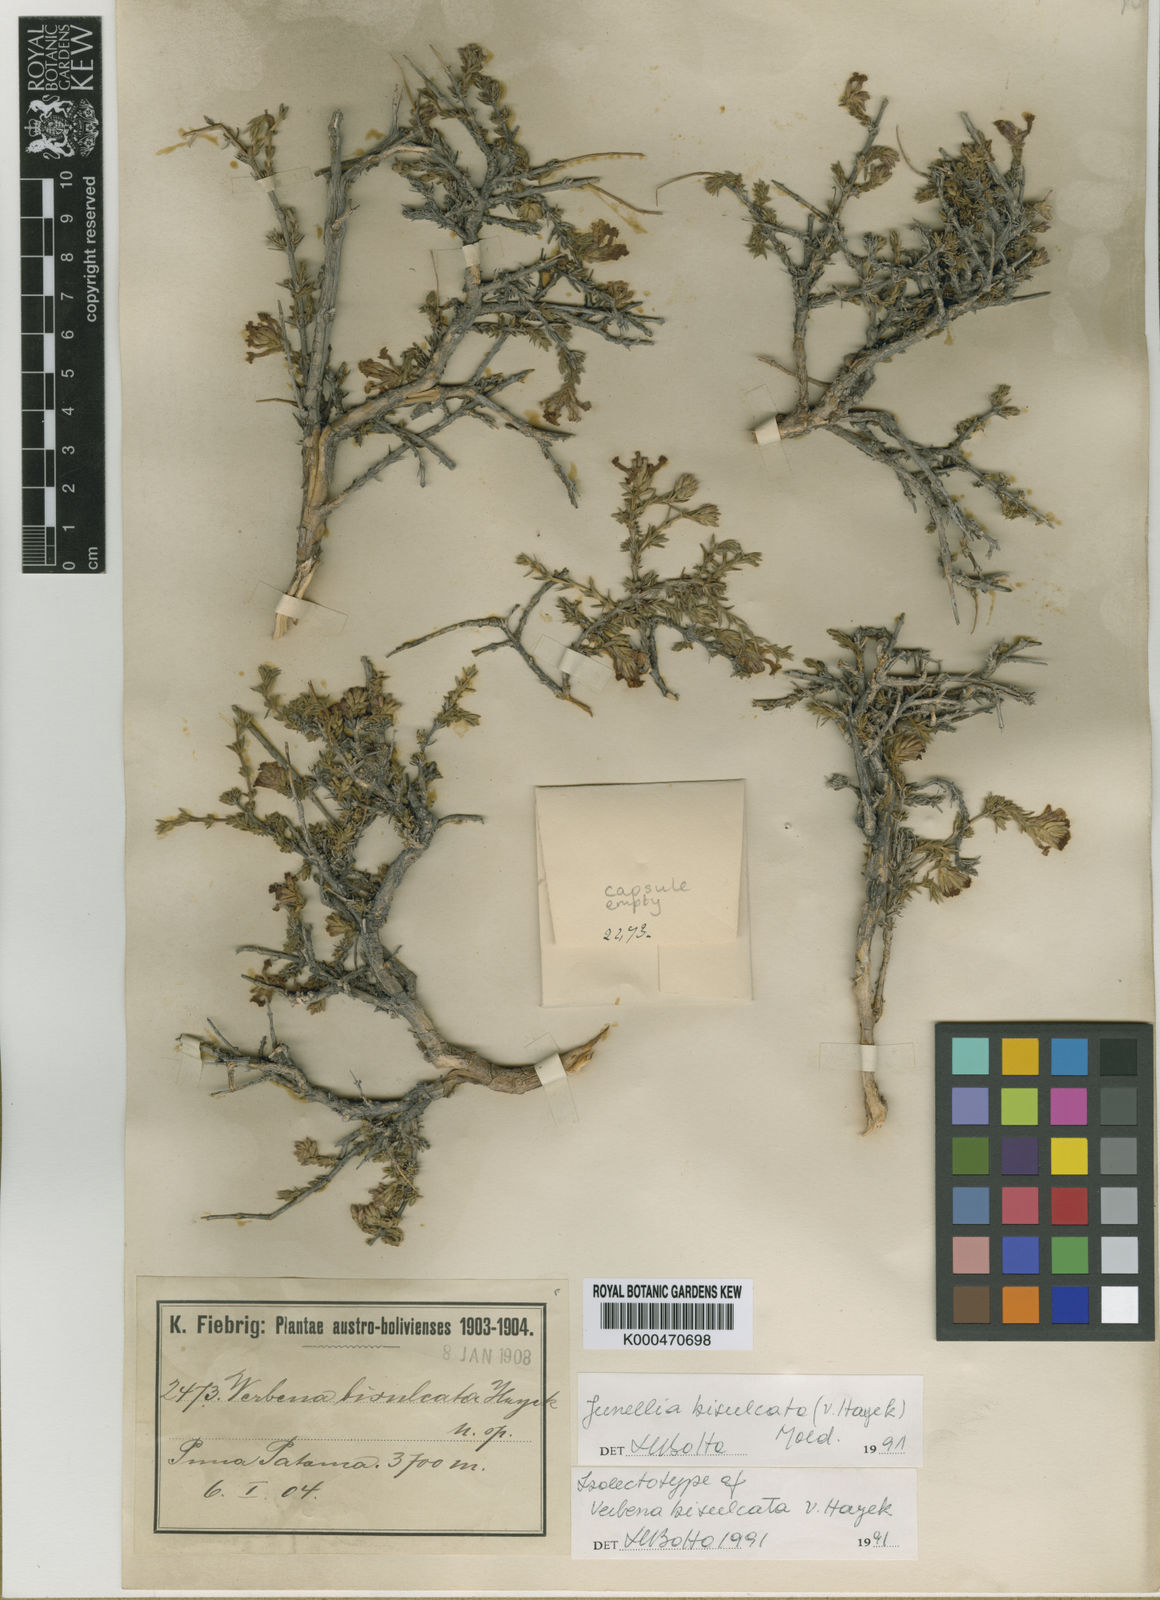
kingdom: Plantae
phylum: Tracheophyta
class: Magnoliopsida
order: Lamiales
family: Verbenaceae
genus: Junellia
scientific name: Junellia bisulcata
